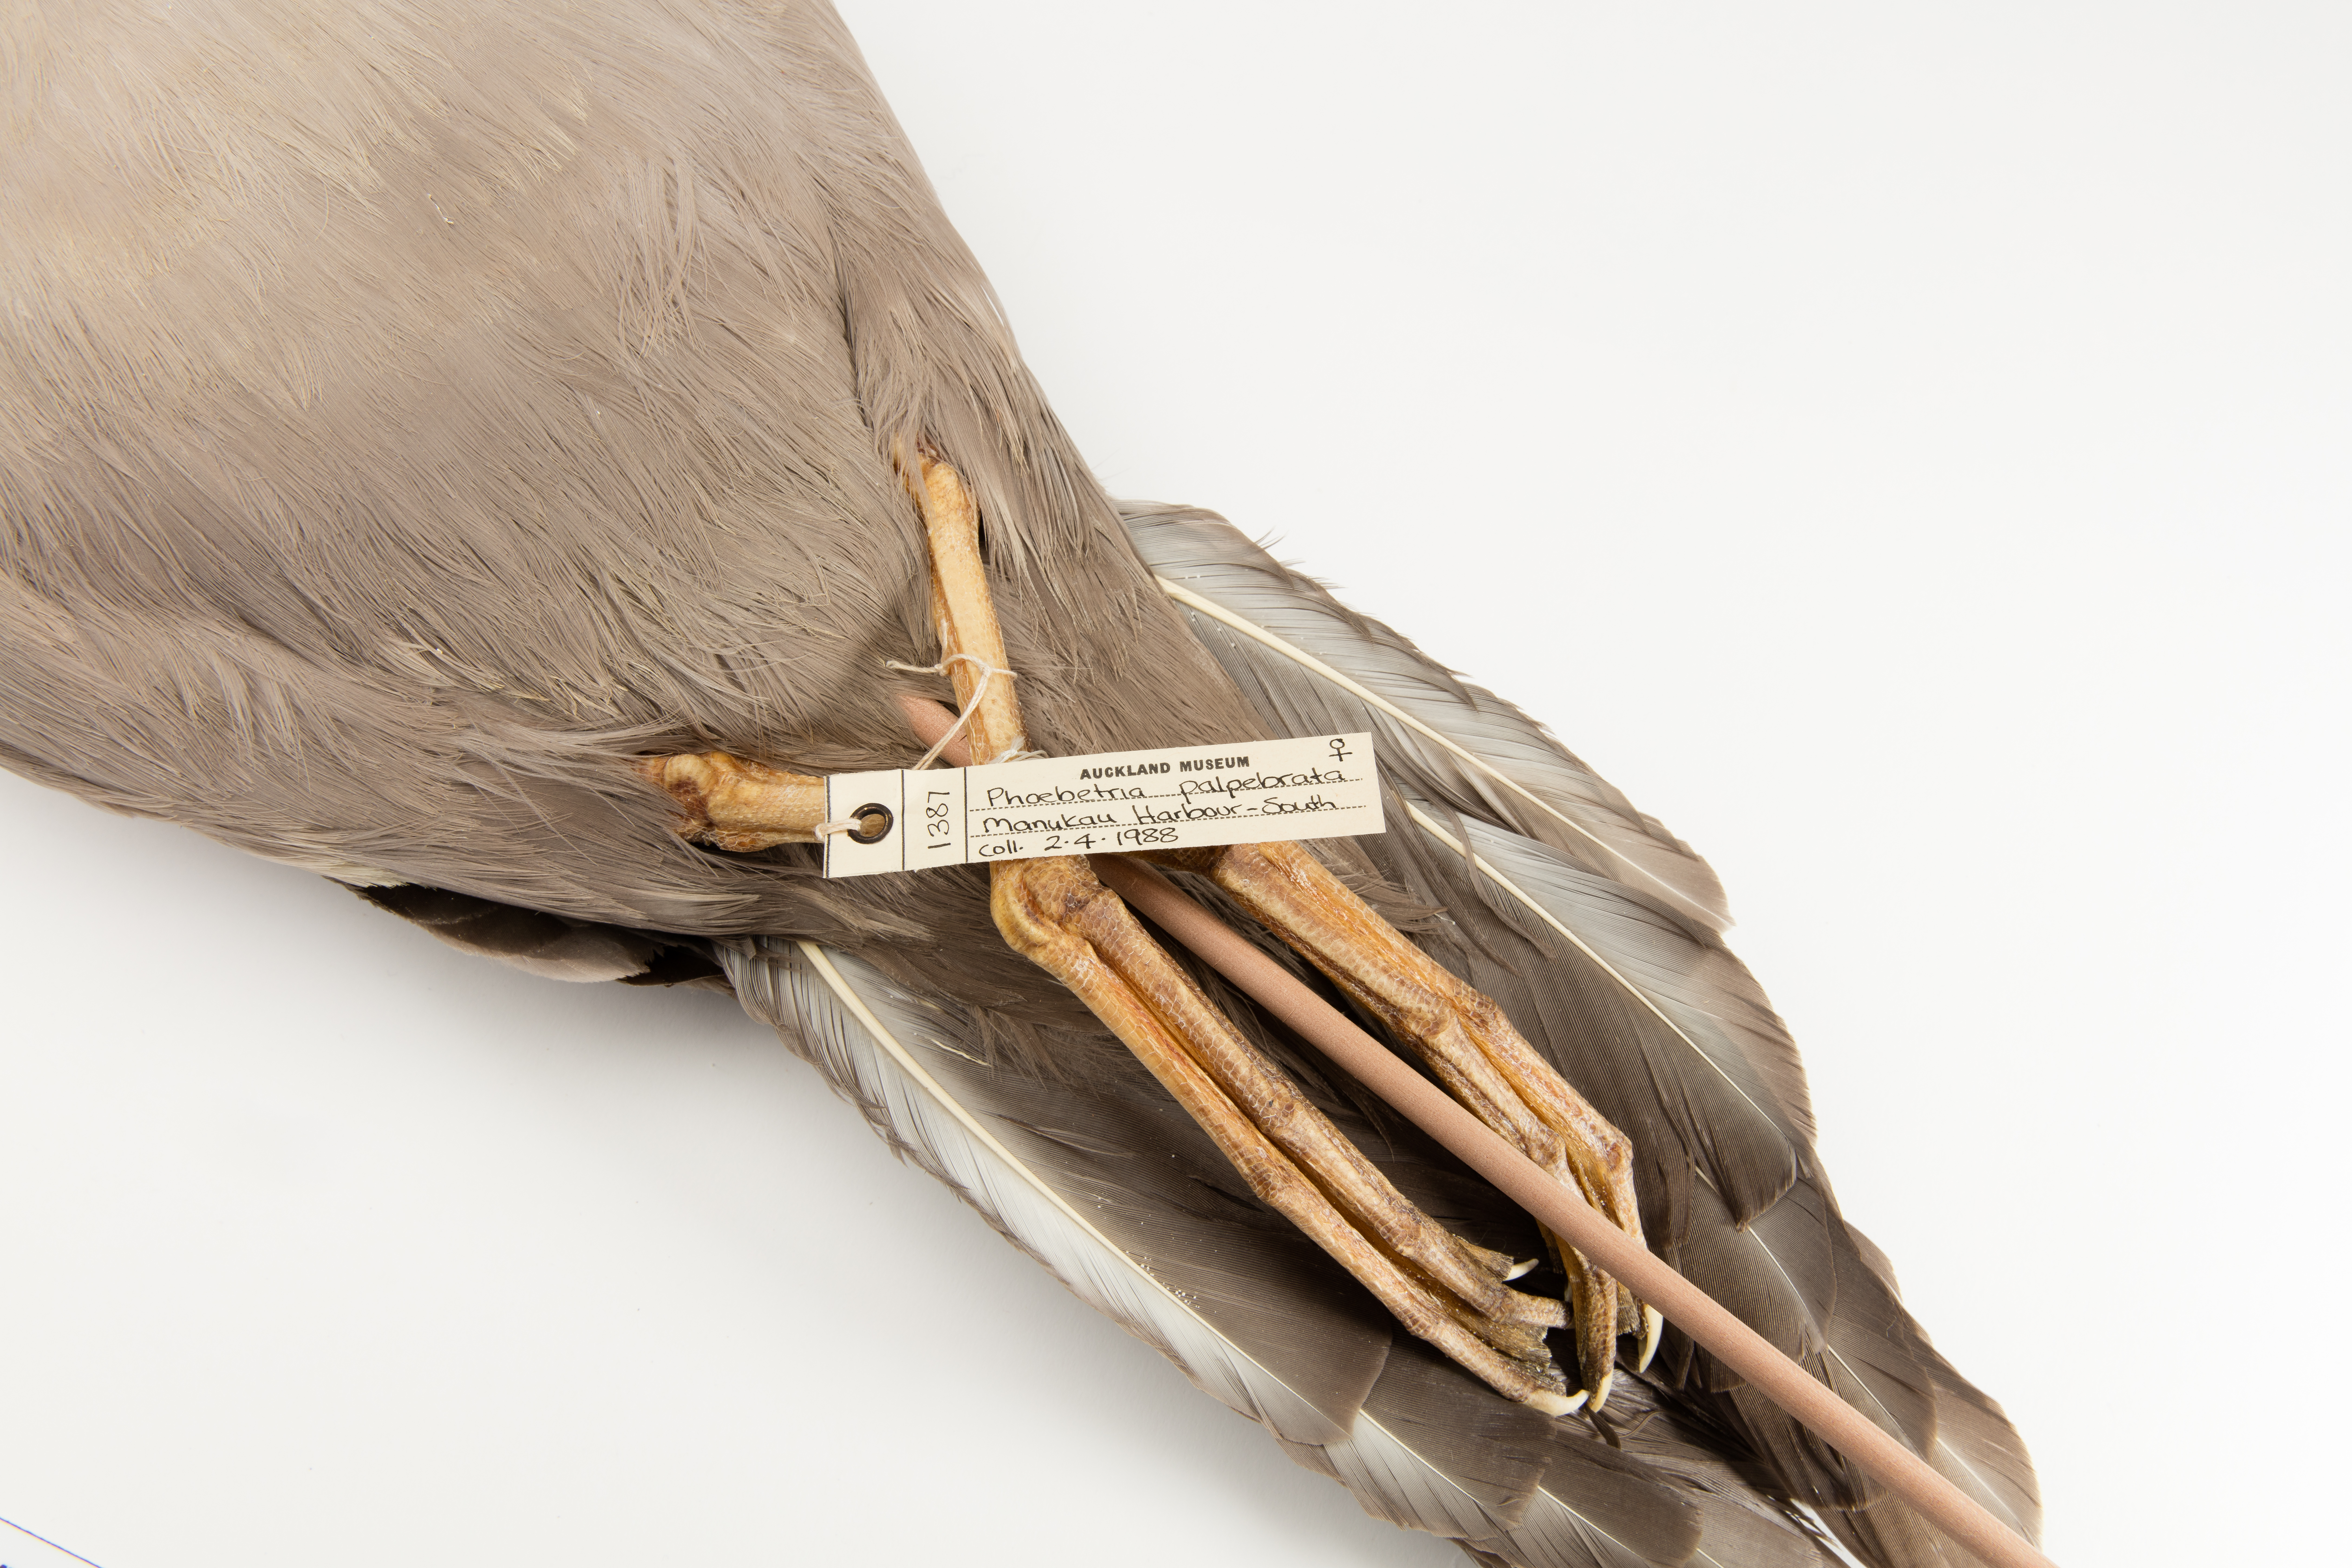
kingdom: Animalia
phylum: Chordata
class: Aves
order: Procellariiformes
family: Diomedeidae
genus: Phoebetria
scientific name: Phoebetria palpebrata
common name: Light-mantled albatross
